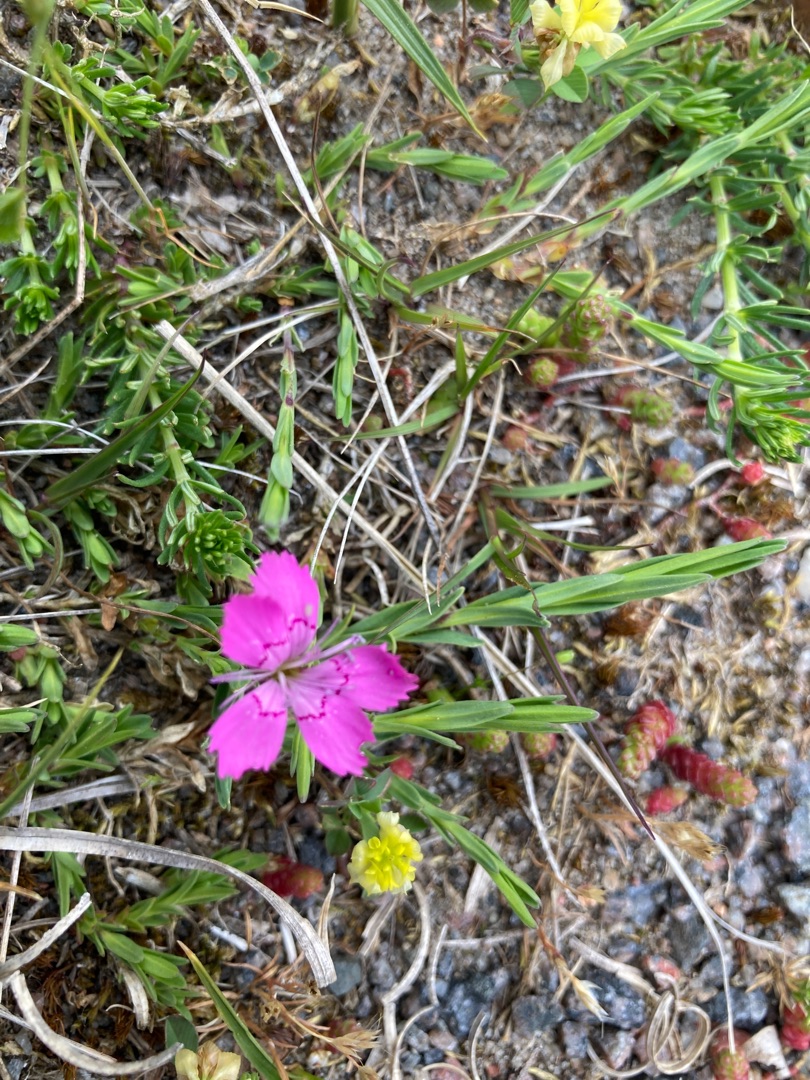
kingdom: Plantae
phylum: Tracheophyta
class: Magnoliopsida
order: Caryophyllales
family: Caryophyllaceae
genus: Dianthus
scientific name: Dianthus deltoides
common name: Bakke-nellike
